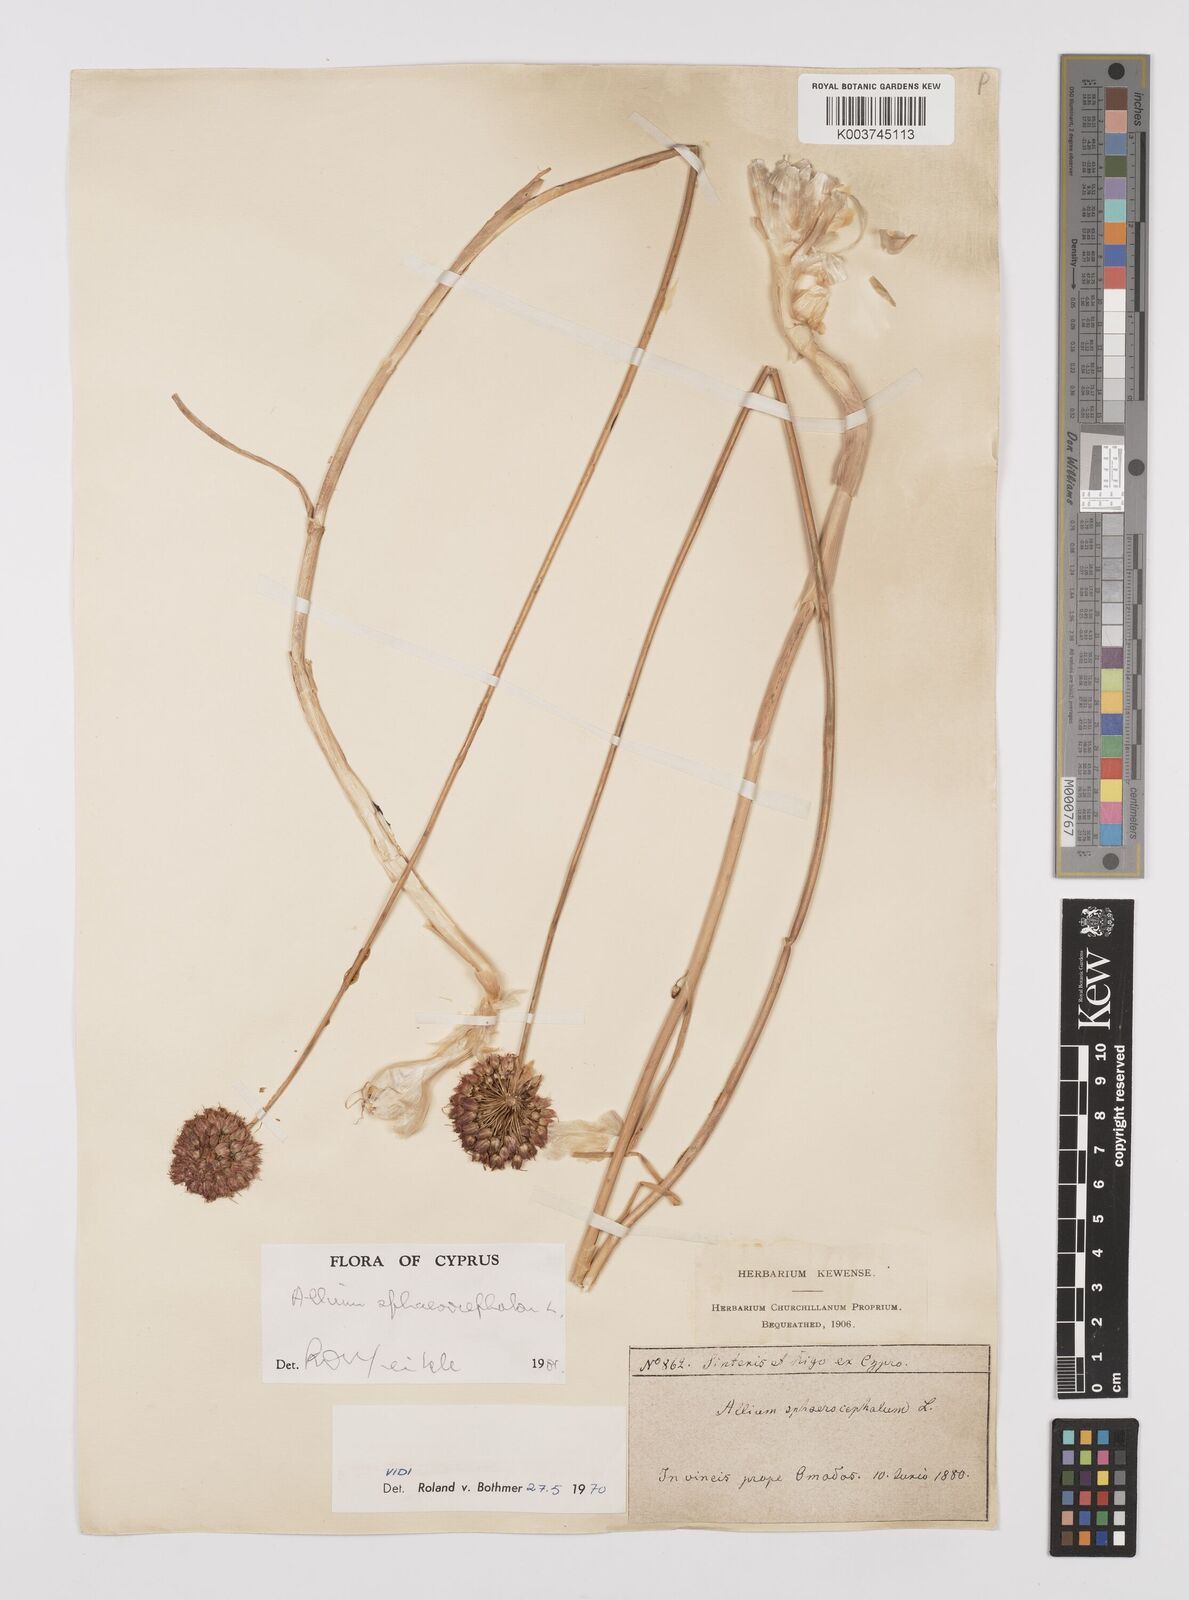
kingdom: Plantae
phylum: Tracheophyta
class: Liliopsida
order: Asparagales
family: Amaryllidaceae
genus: Allium
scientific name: Allium vineale
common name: Crow garlic
